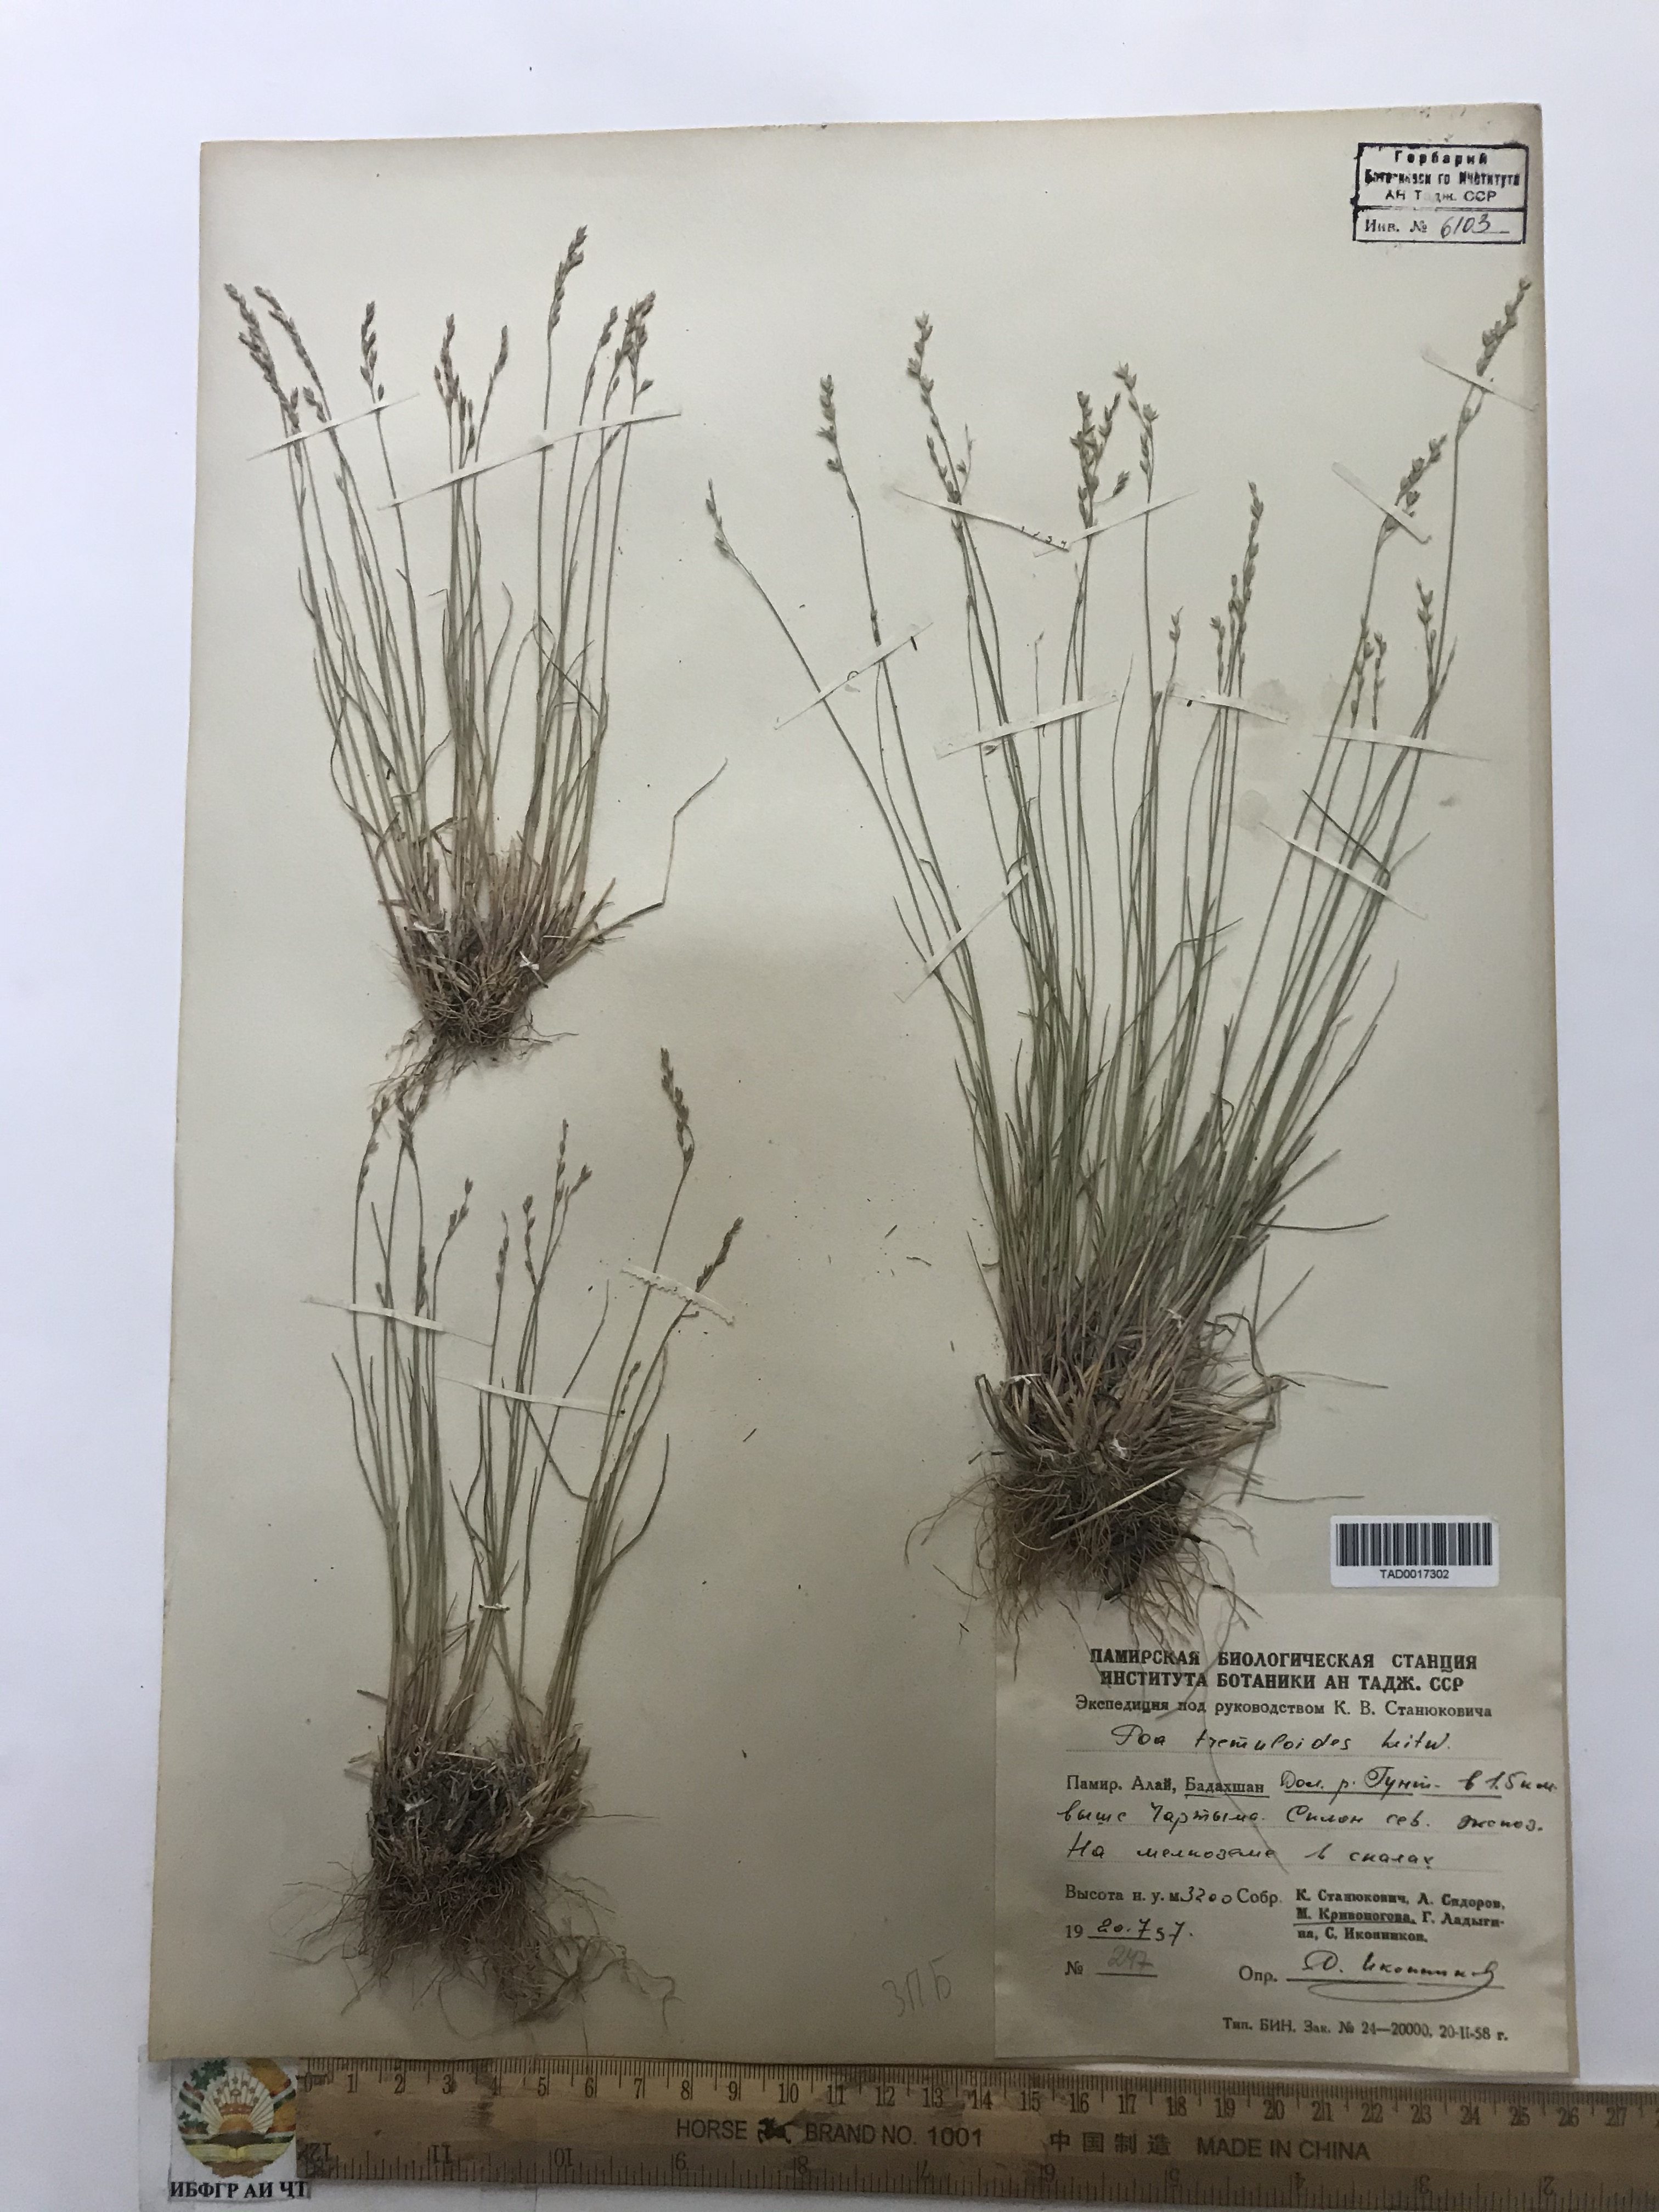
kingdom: Plantae
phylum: Tracheophyta
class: Liliopsida
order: Poales
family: Poaceae
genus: Poa
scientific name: Poa glauca
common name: Glaucous bluegrass
